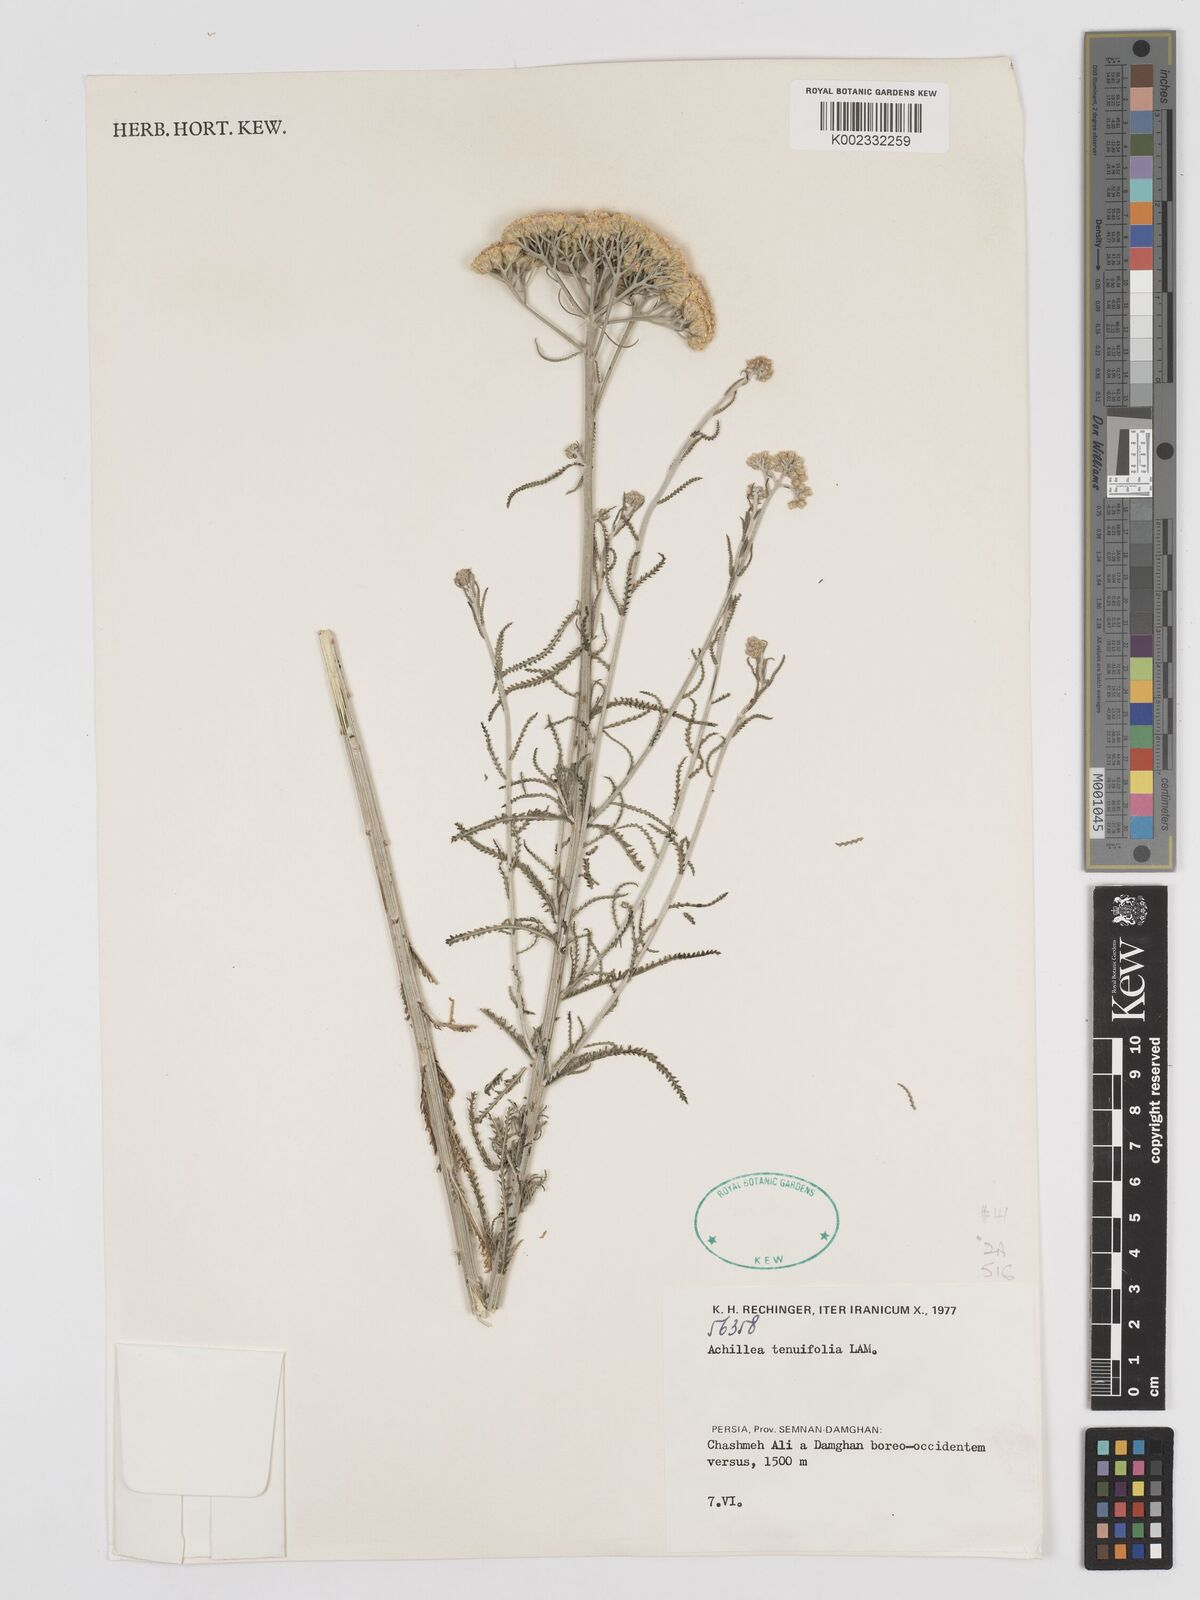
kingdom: Plantae
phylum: Tracheophyta
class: Magnoliopsida
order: Asterales
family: Asteraceae
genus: Achillea
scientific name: Achillea tenuifolia
